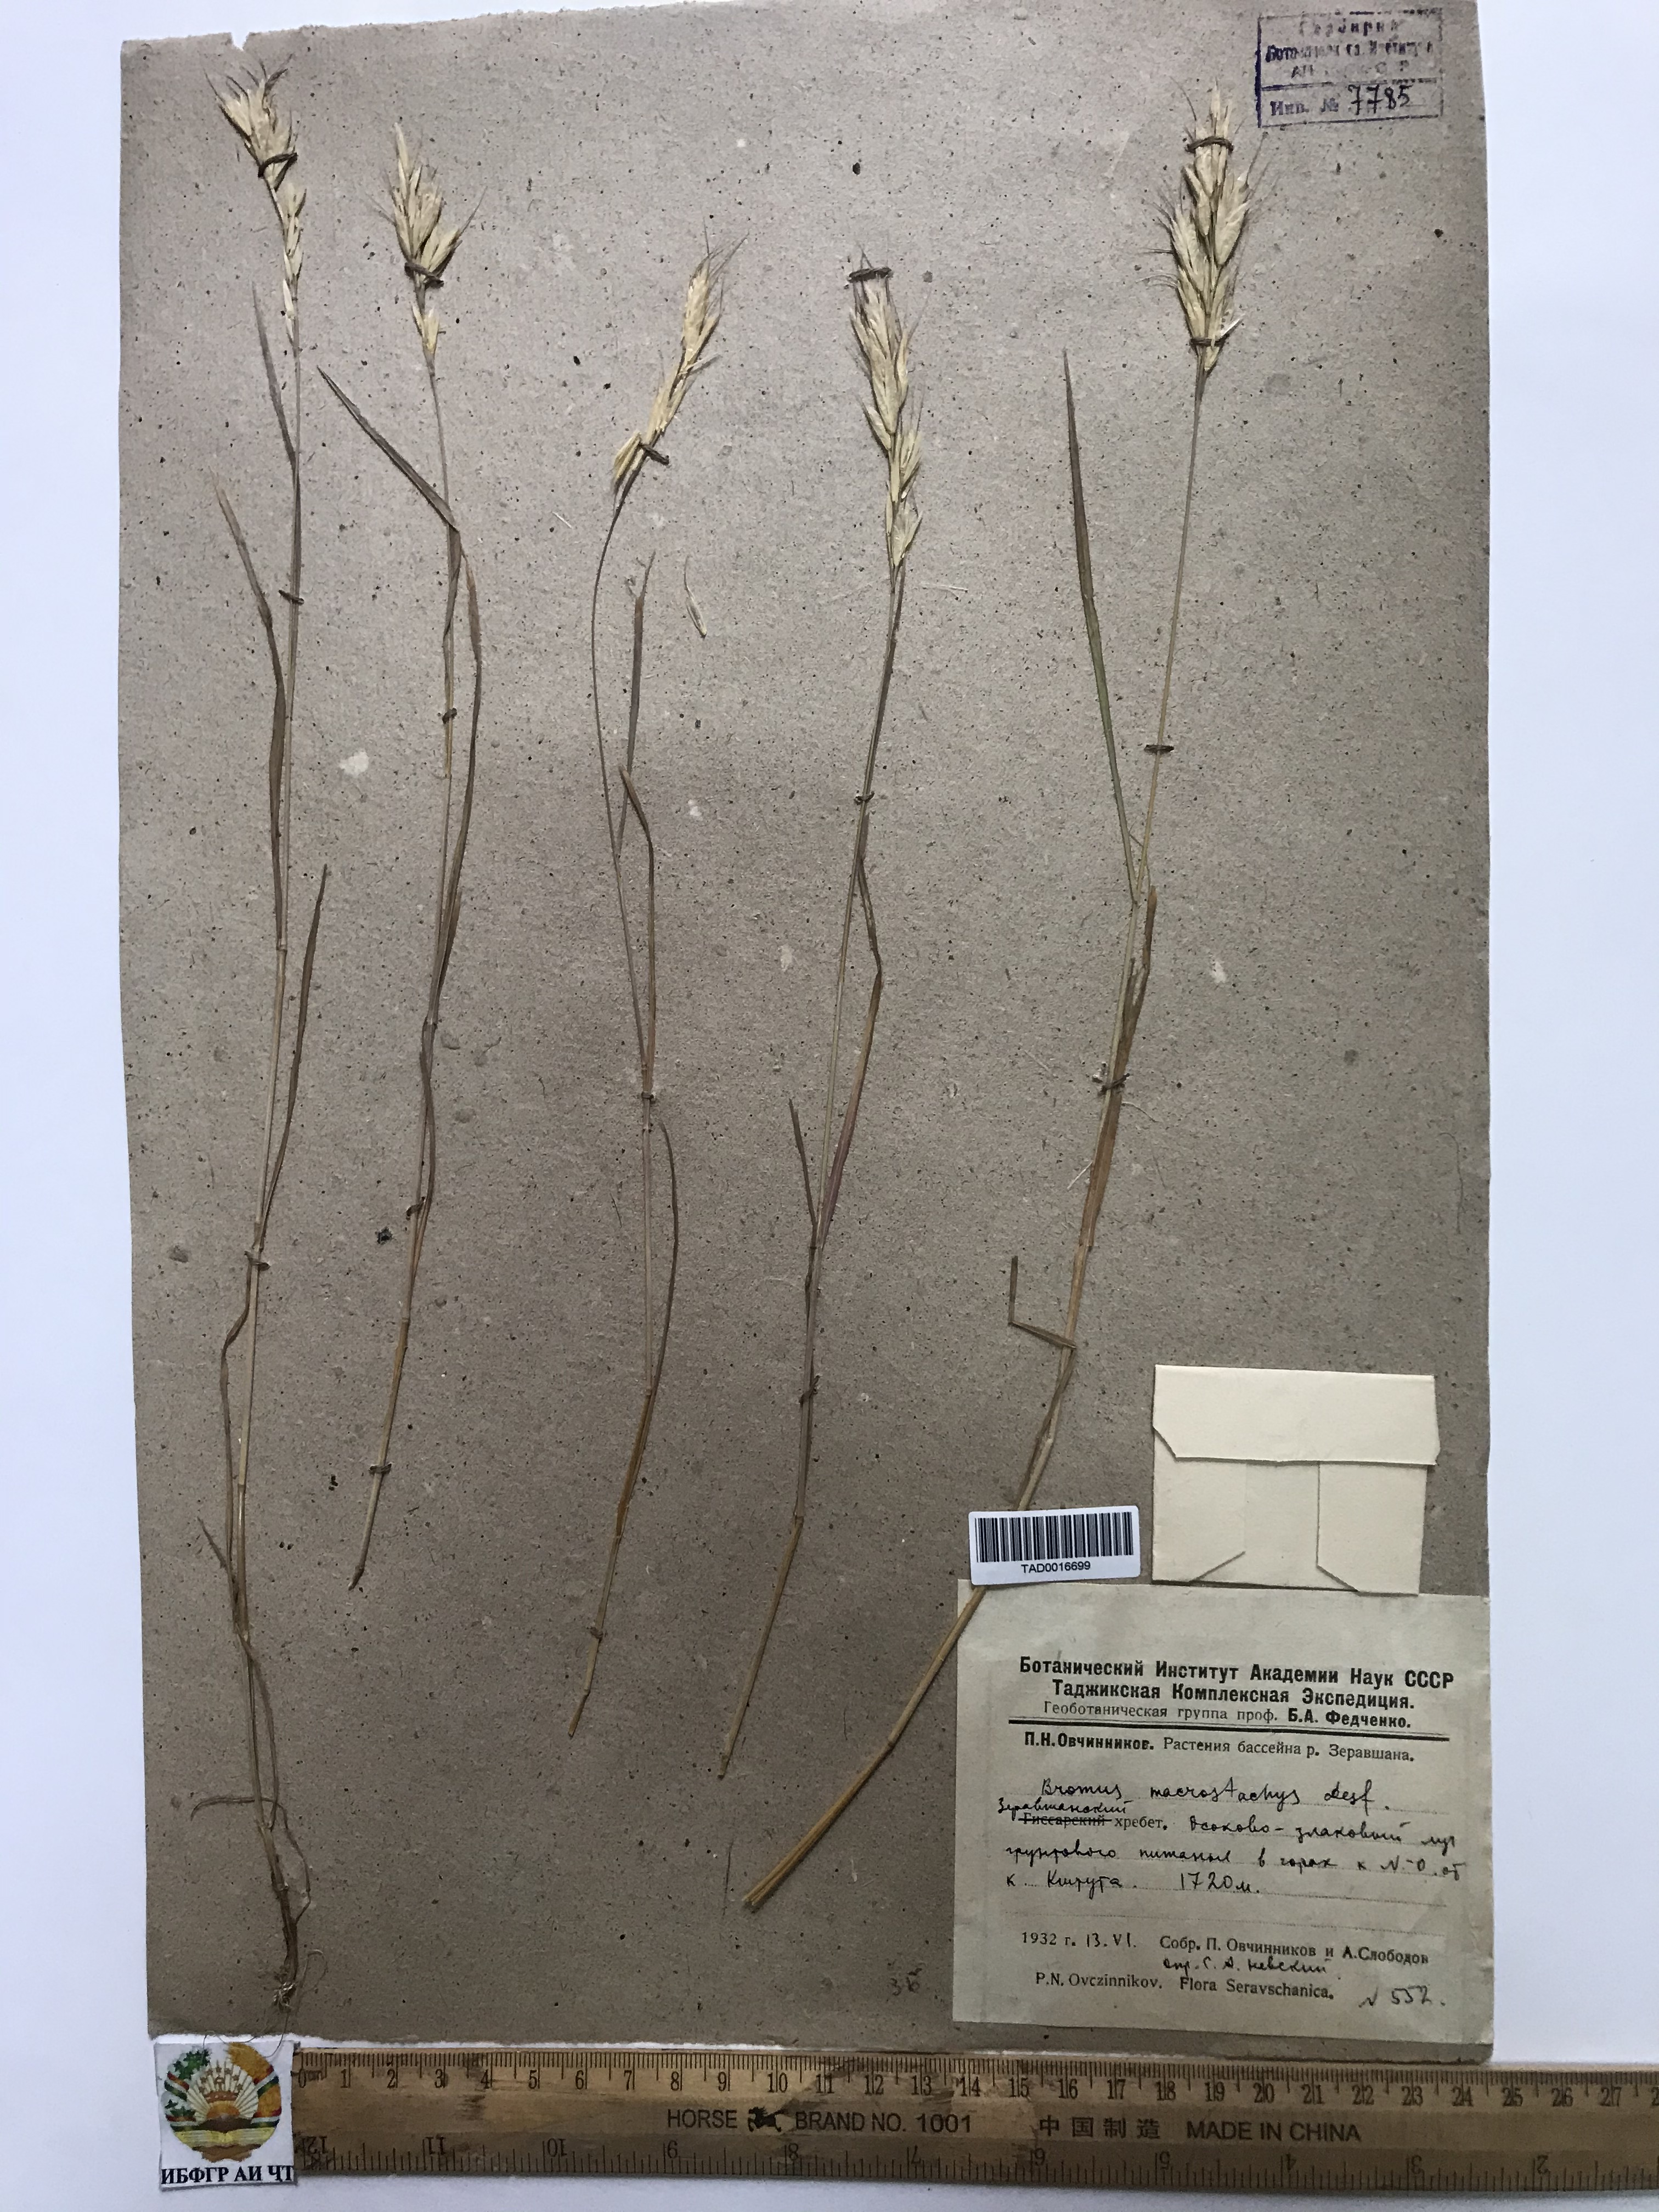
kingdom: Plantae
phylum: Tracheophyta
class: Liliopsida
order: Poales
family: Poaceae
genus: Bromus
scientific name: Bromus lanceolatus
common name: Mediterranean brome
